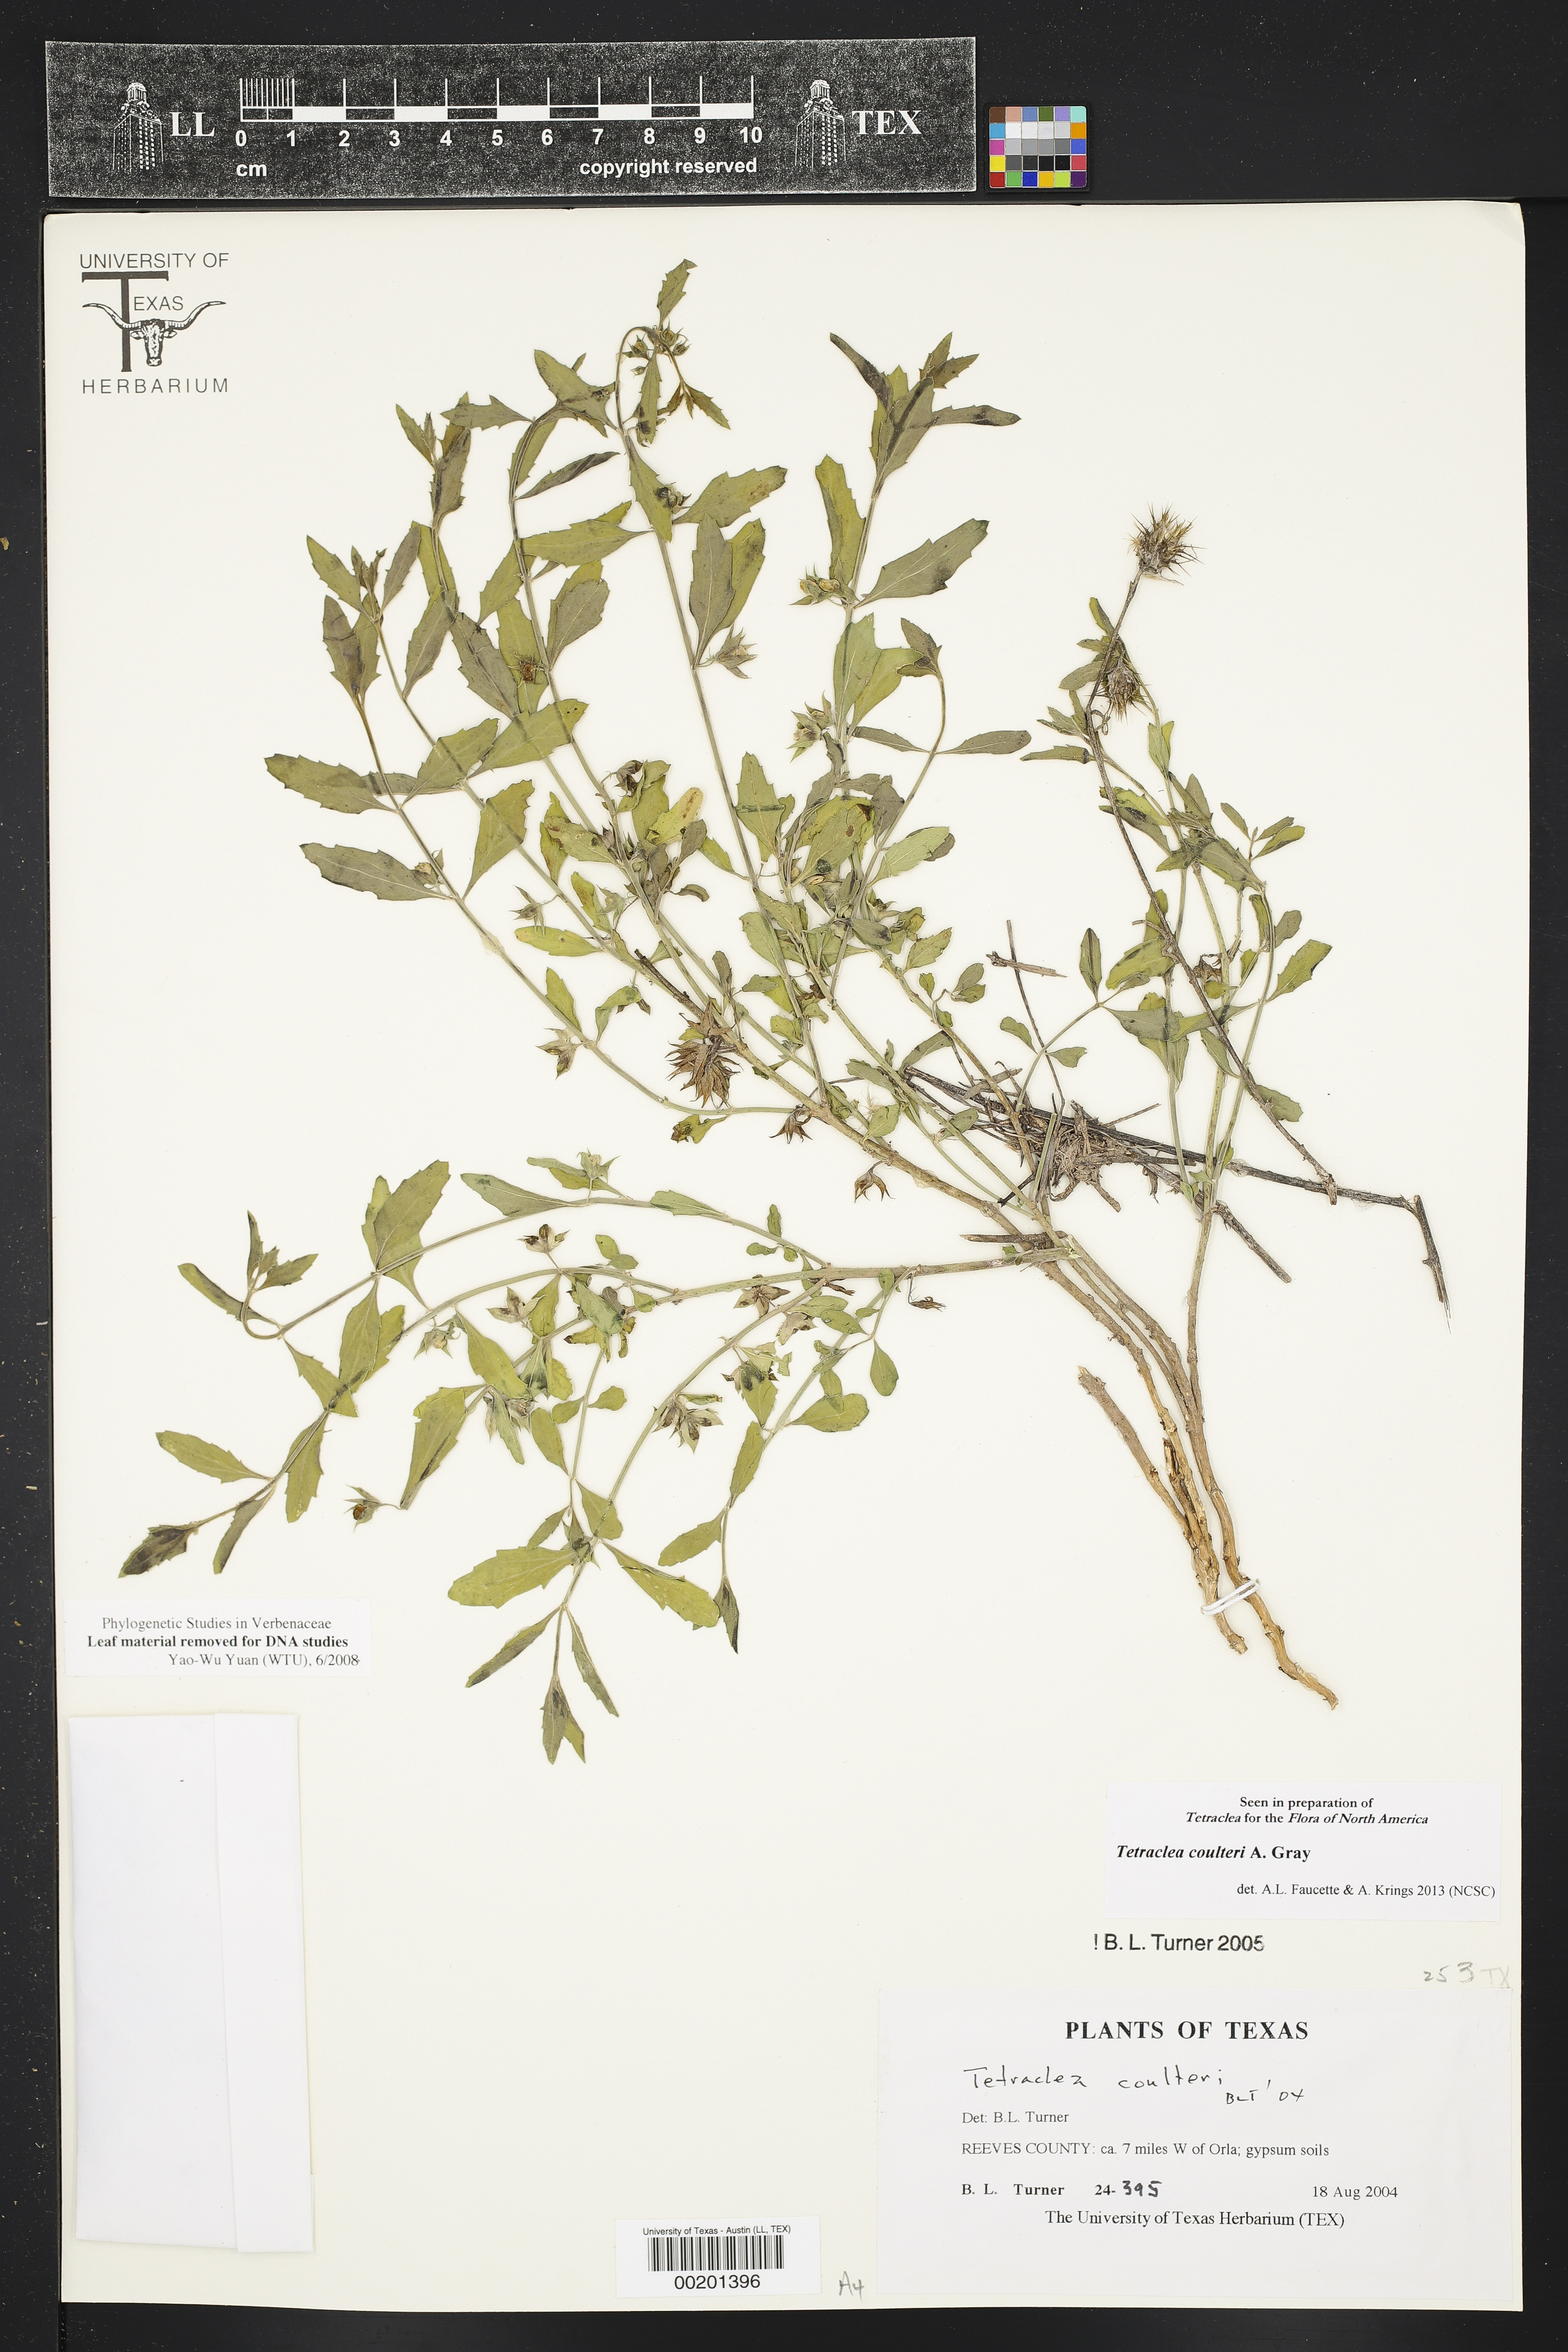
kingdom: Plantae
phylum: Tracheophyta
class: Magnoliopsida
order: Lamiales
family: Lamiaceae
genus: Tetraclea
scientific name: Tetraclea coulteri
